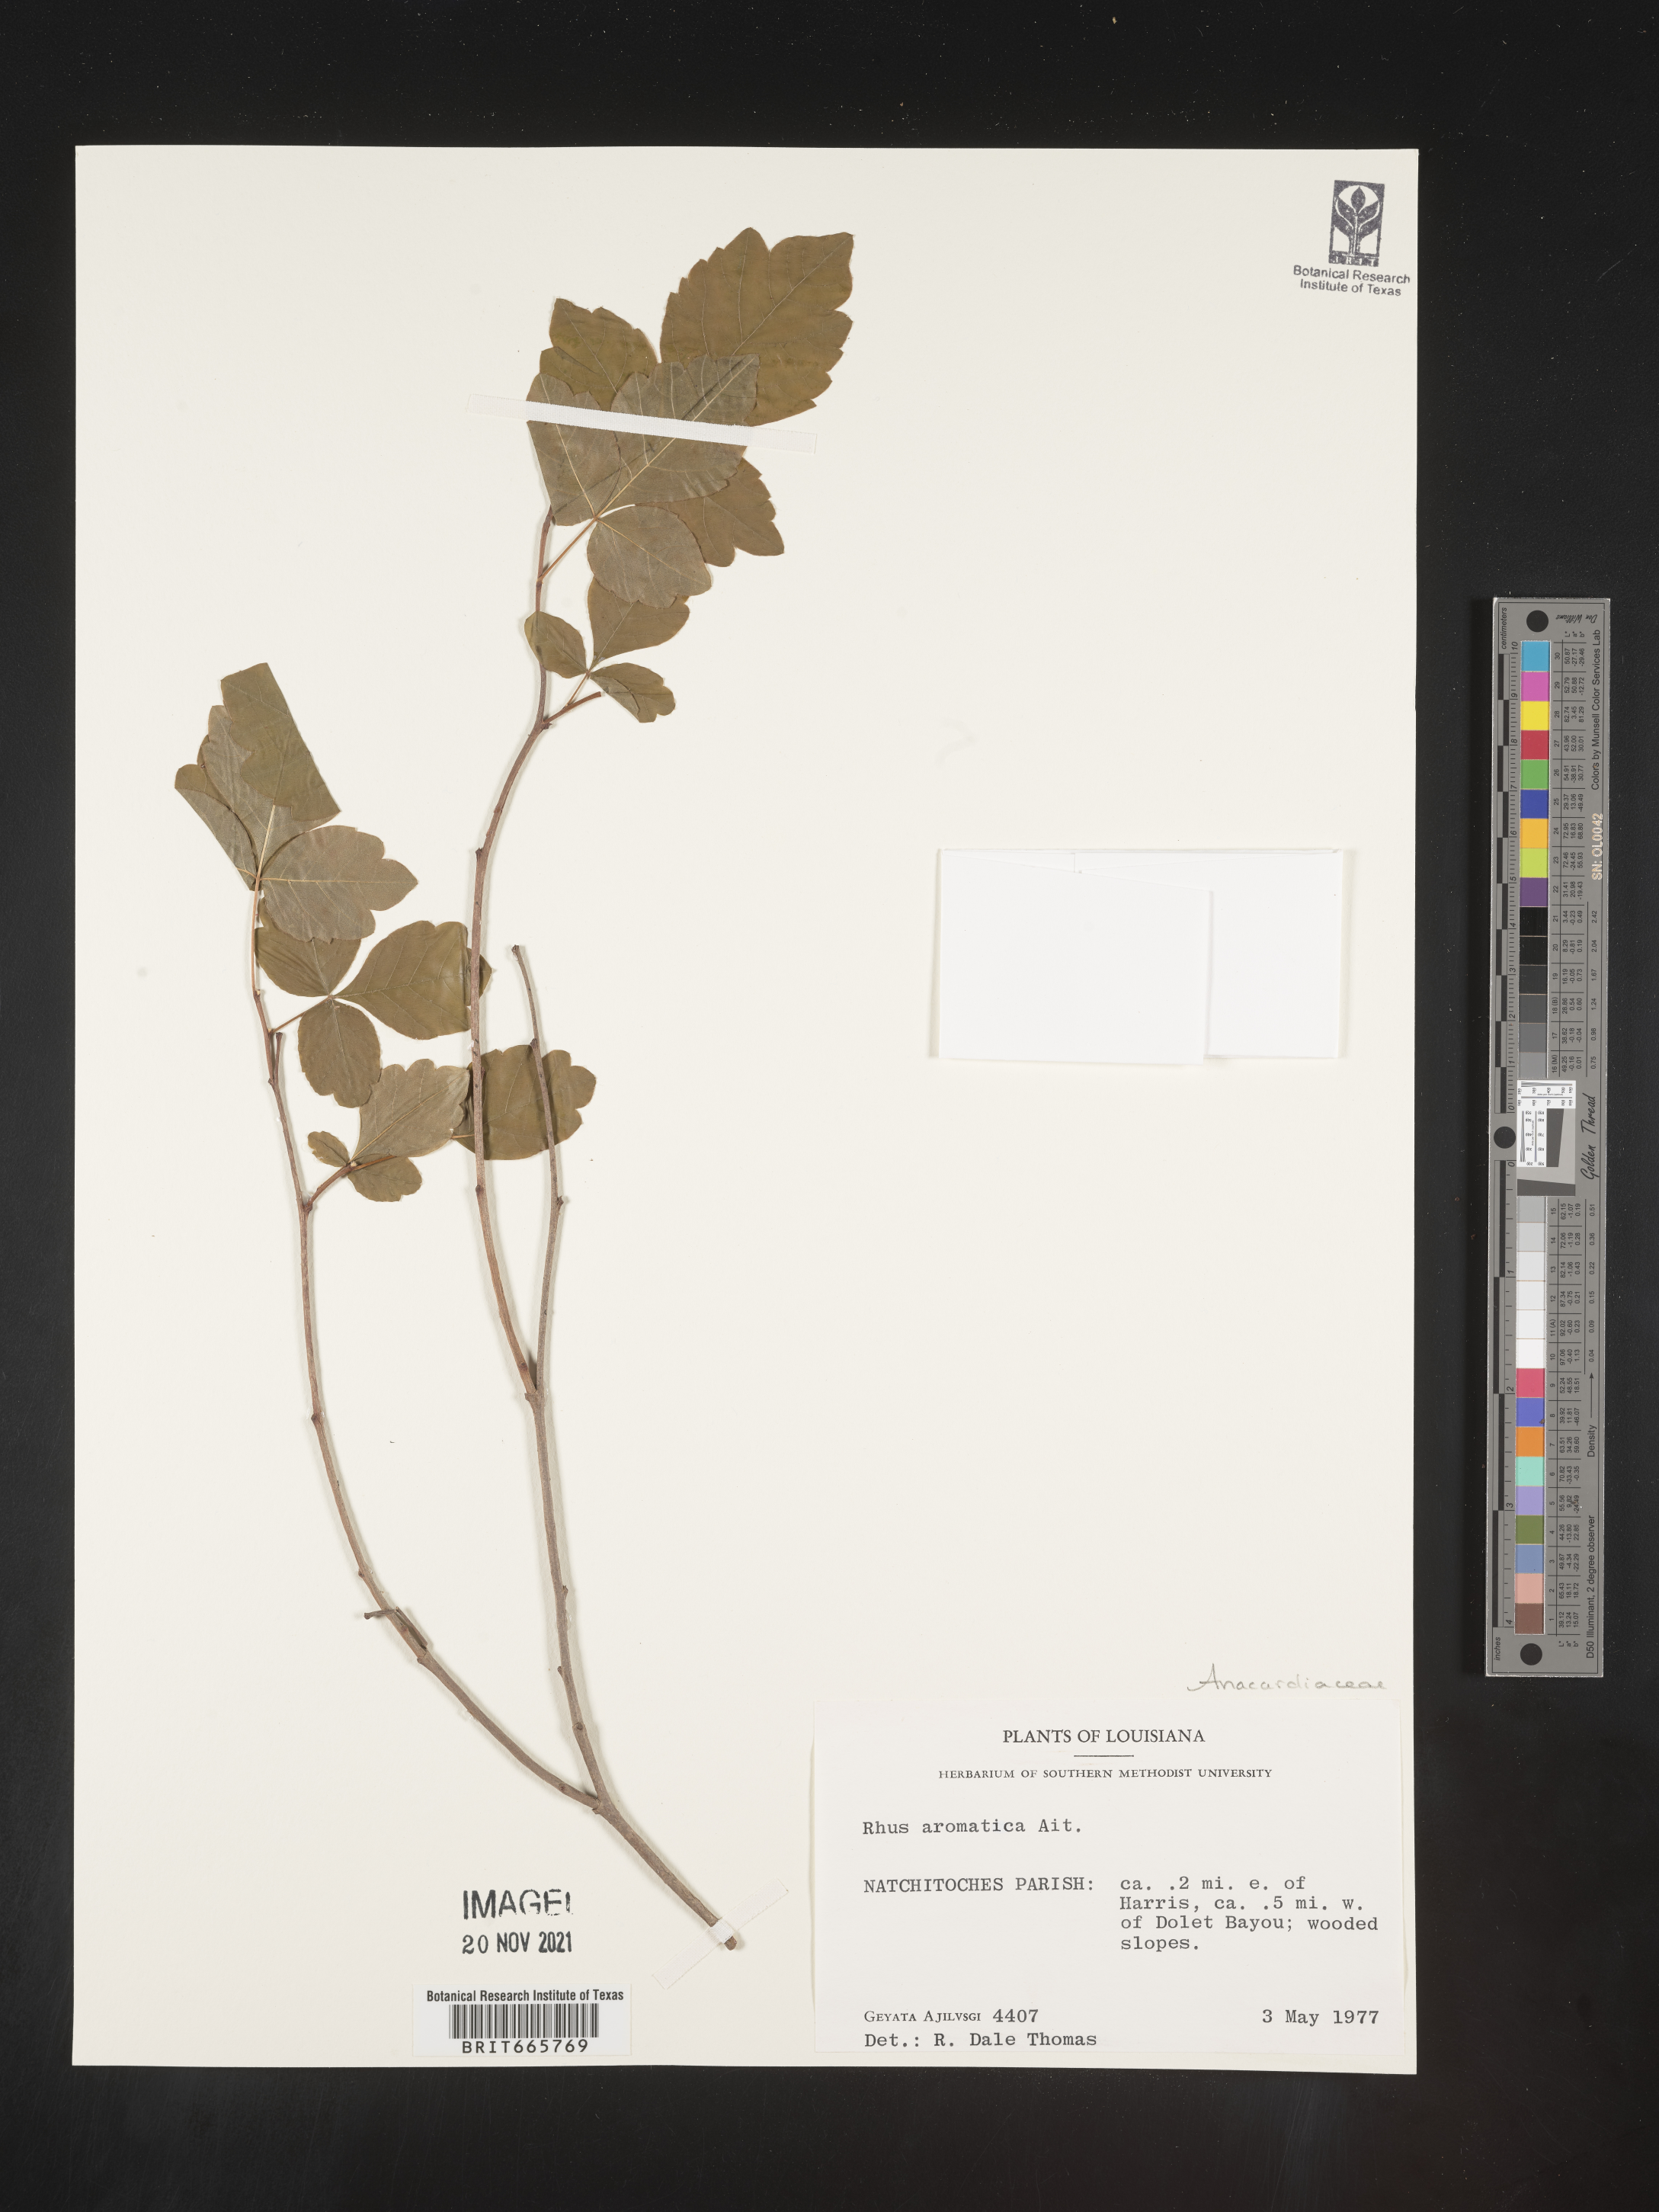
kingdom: Plantae
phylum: Tracheophyta
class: Magnoliopsida
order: Sapindales
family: Anacardiaceae
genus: Rhus
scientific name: Rhus aromatica
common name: Aromatic sumac
